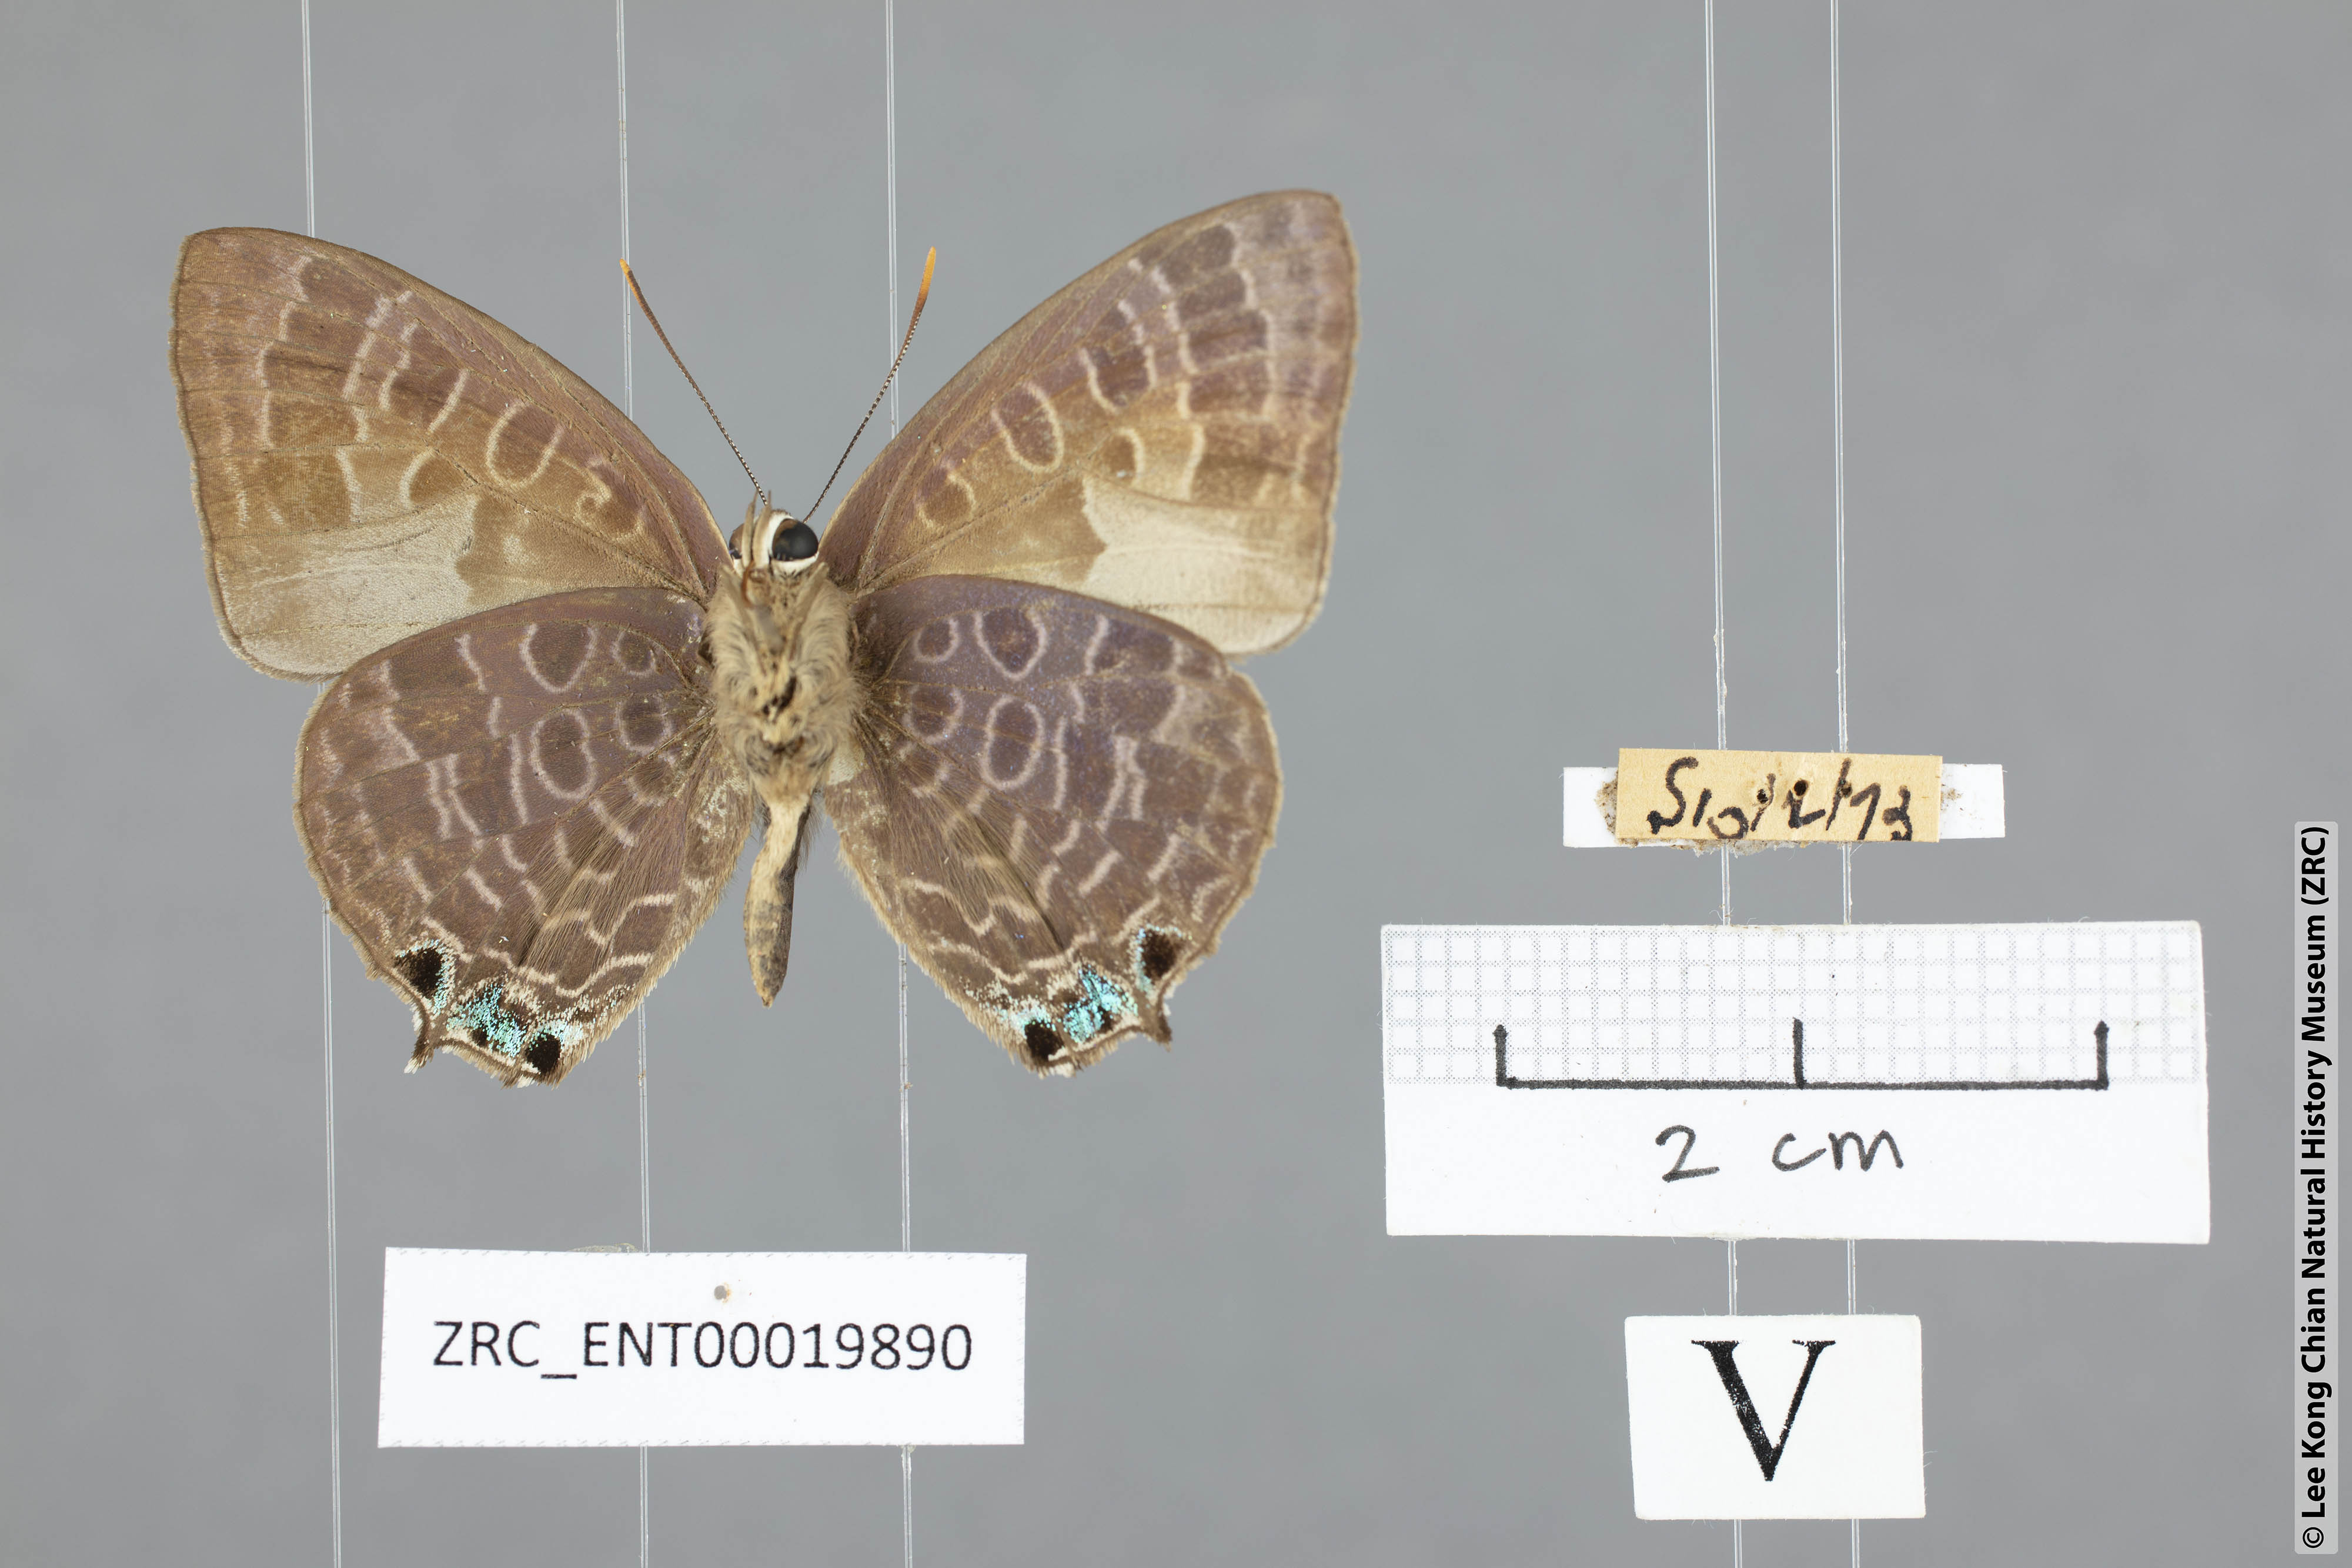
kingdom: Animalia
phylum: Arthropoda
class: Insecta
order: Lepidoptera
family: Lycaenidae
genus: Arhopala
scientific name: Arhopala trogon
